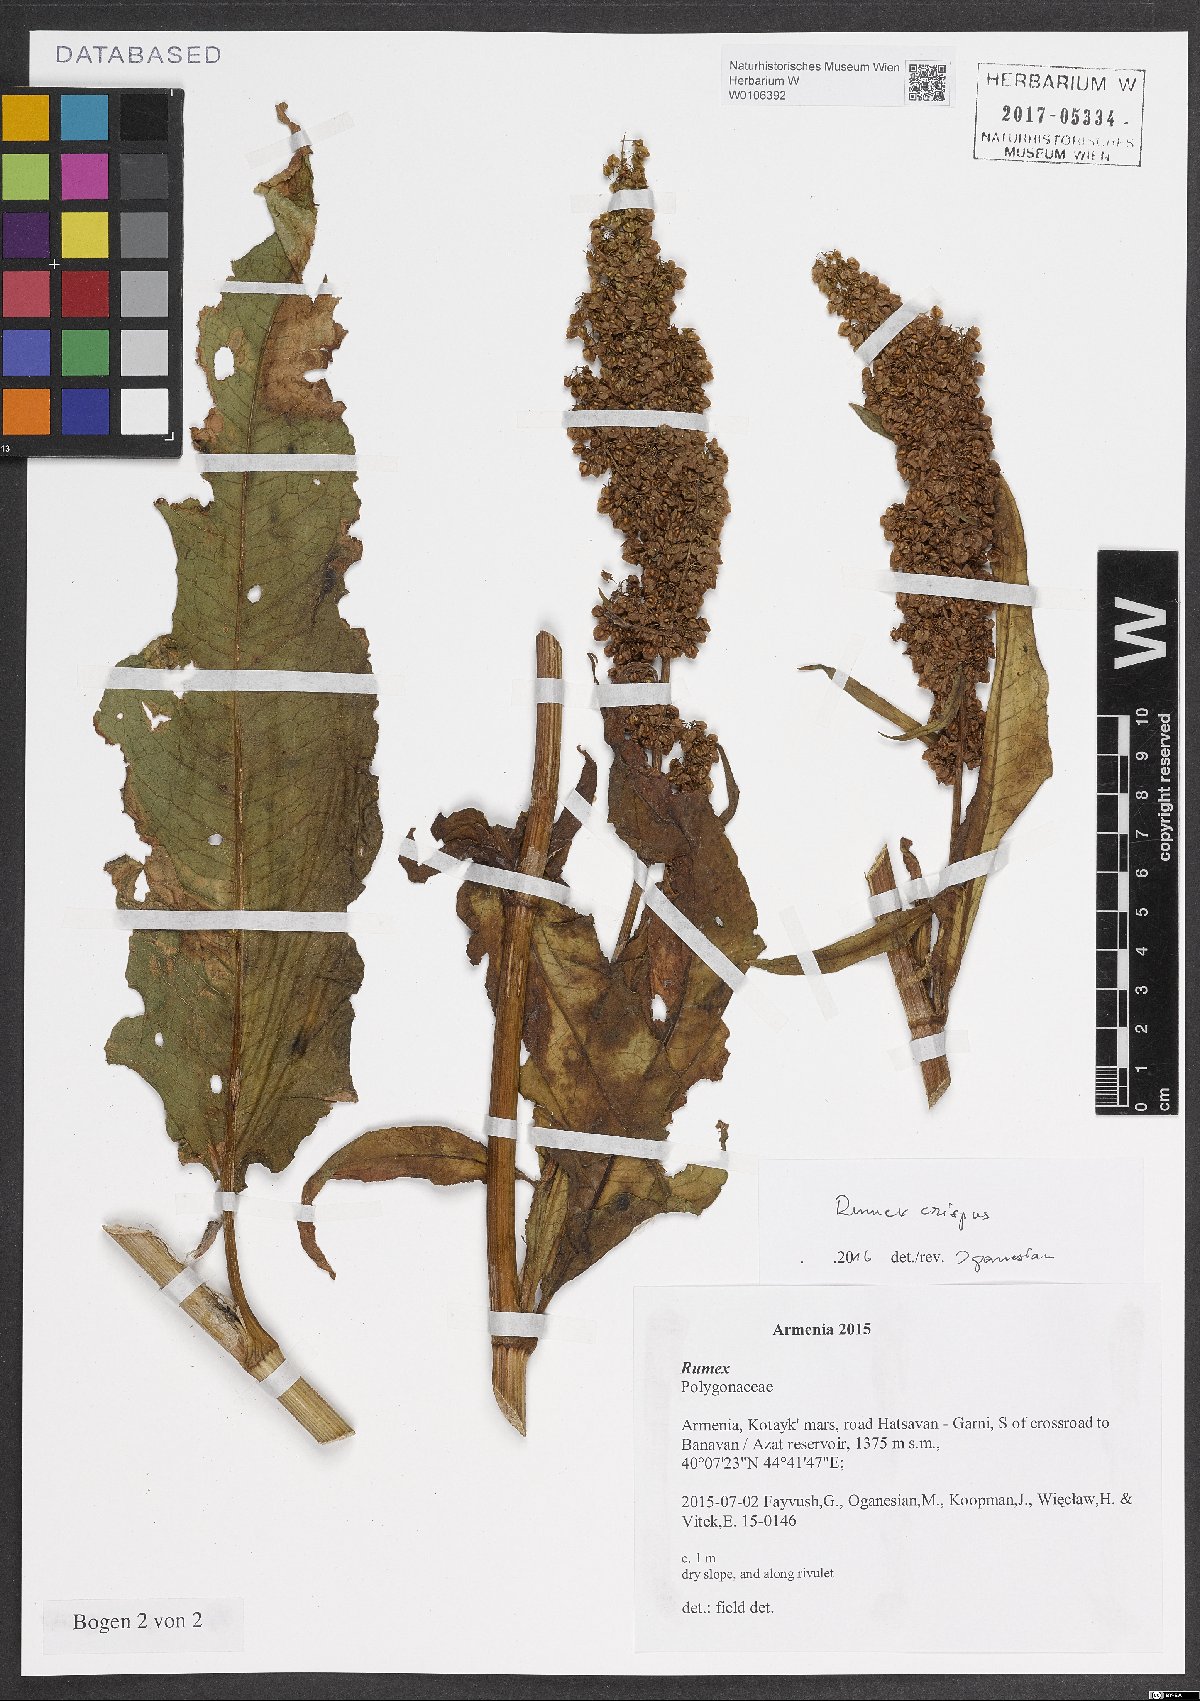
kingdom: Plantae
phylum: Tracheophyta
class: Magnoliopsida
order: Caryophyllales
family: Polygonaceae
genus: Rumex
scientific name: Rumex crispus
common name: Curled dock
